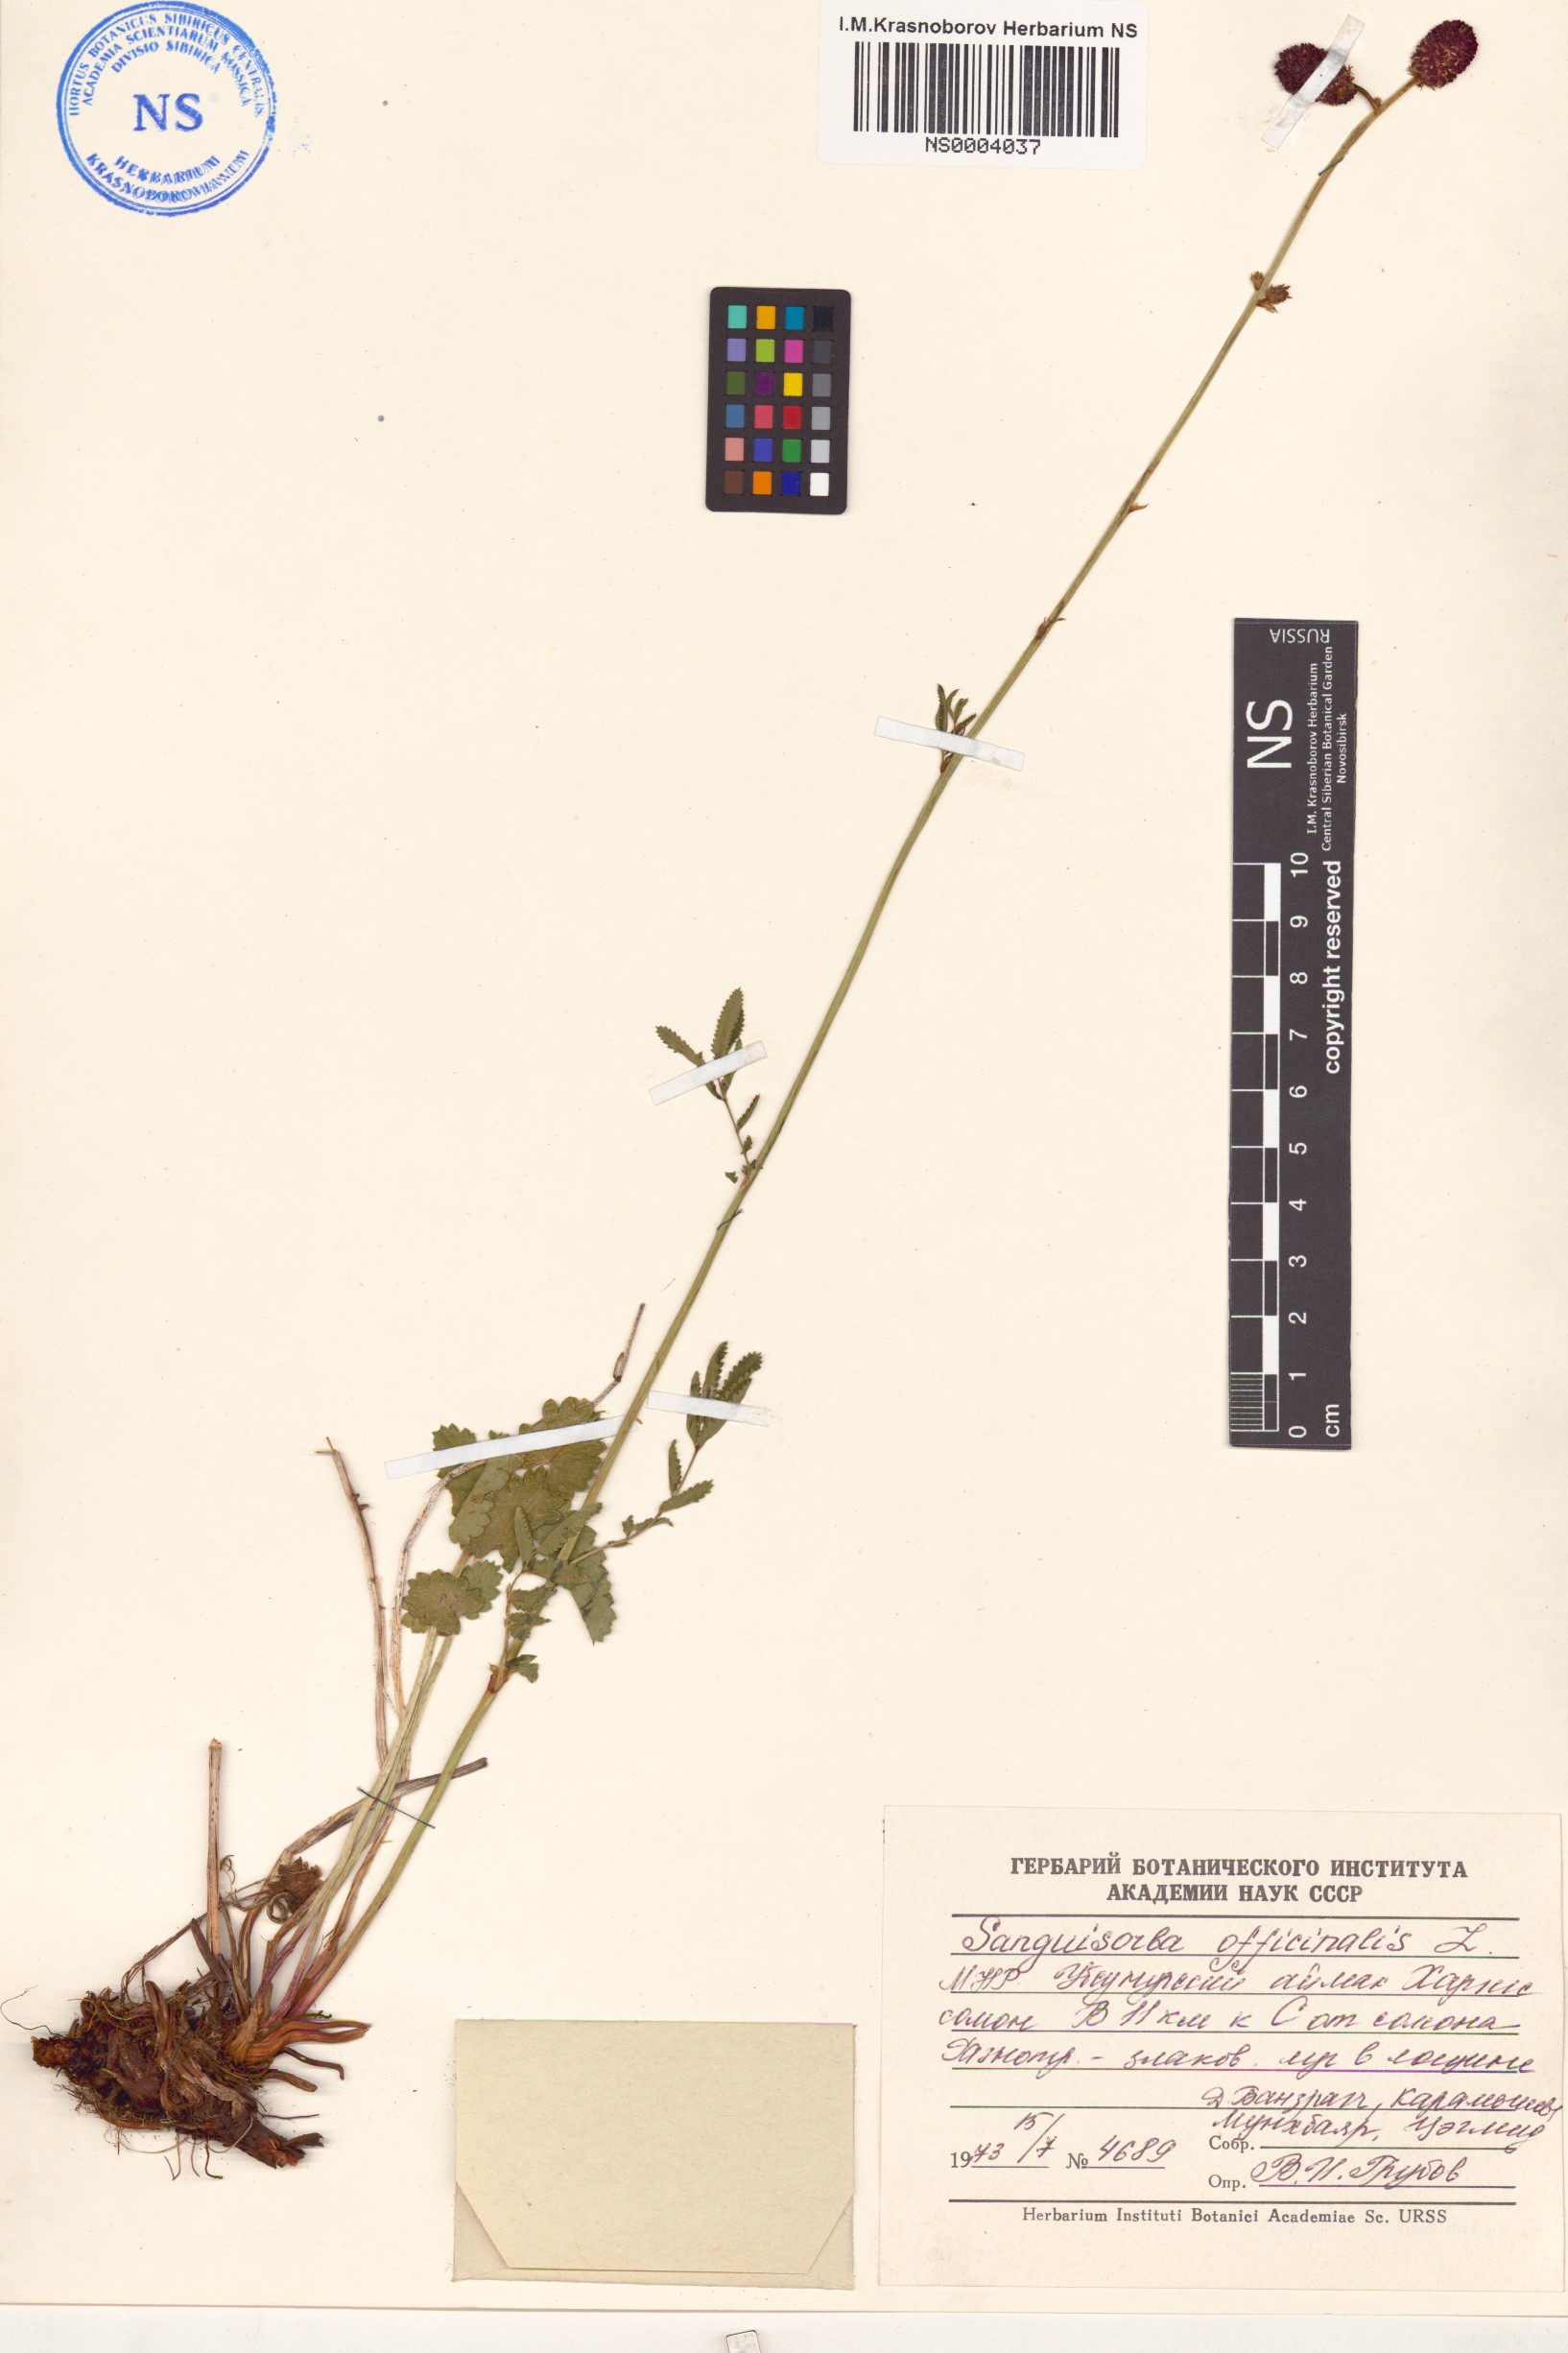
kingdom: Plantae
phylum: Tracheophyta
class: Magnoliopsida
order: Rosales
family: Rosaceae
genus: Sanguisorba
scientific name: Sanguisorba officinalis
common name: Great burnet
